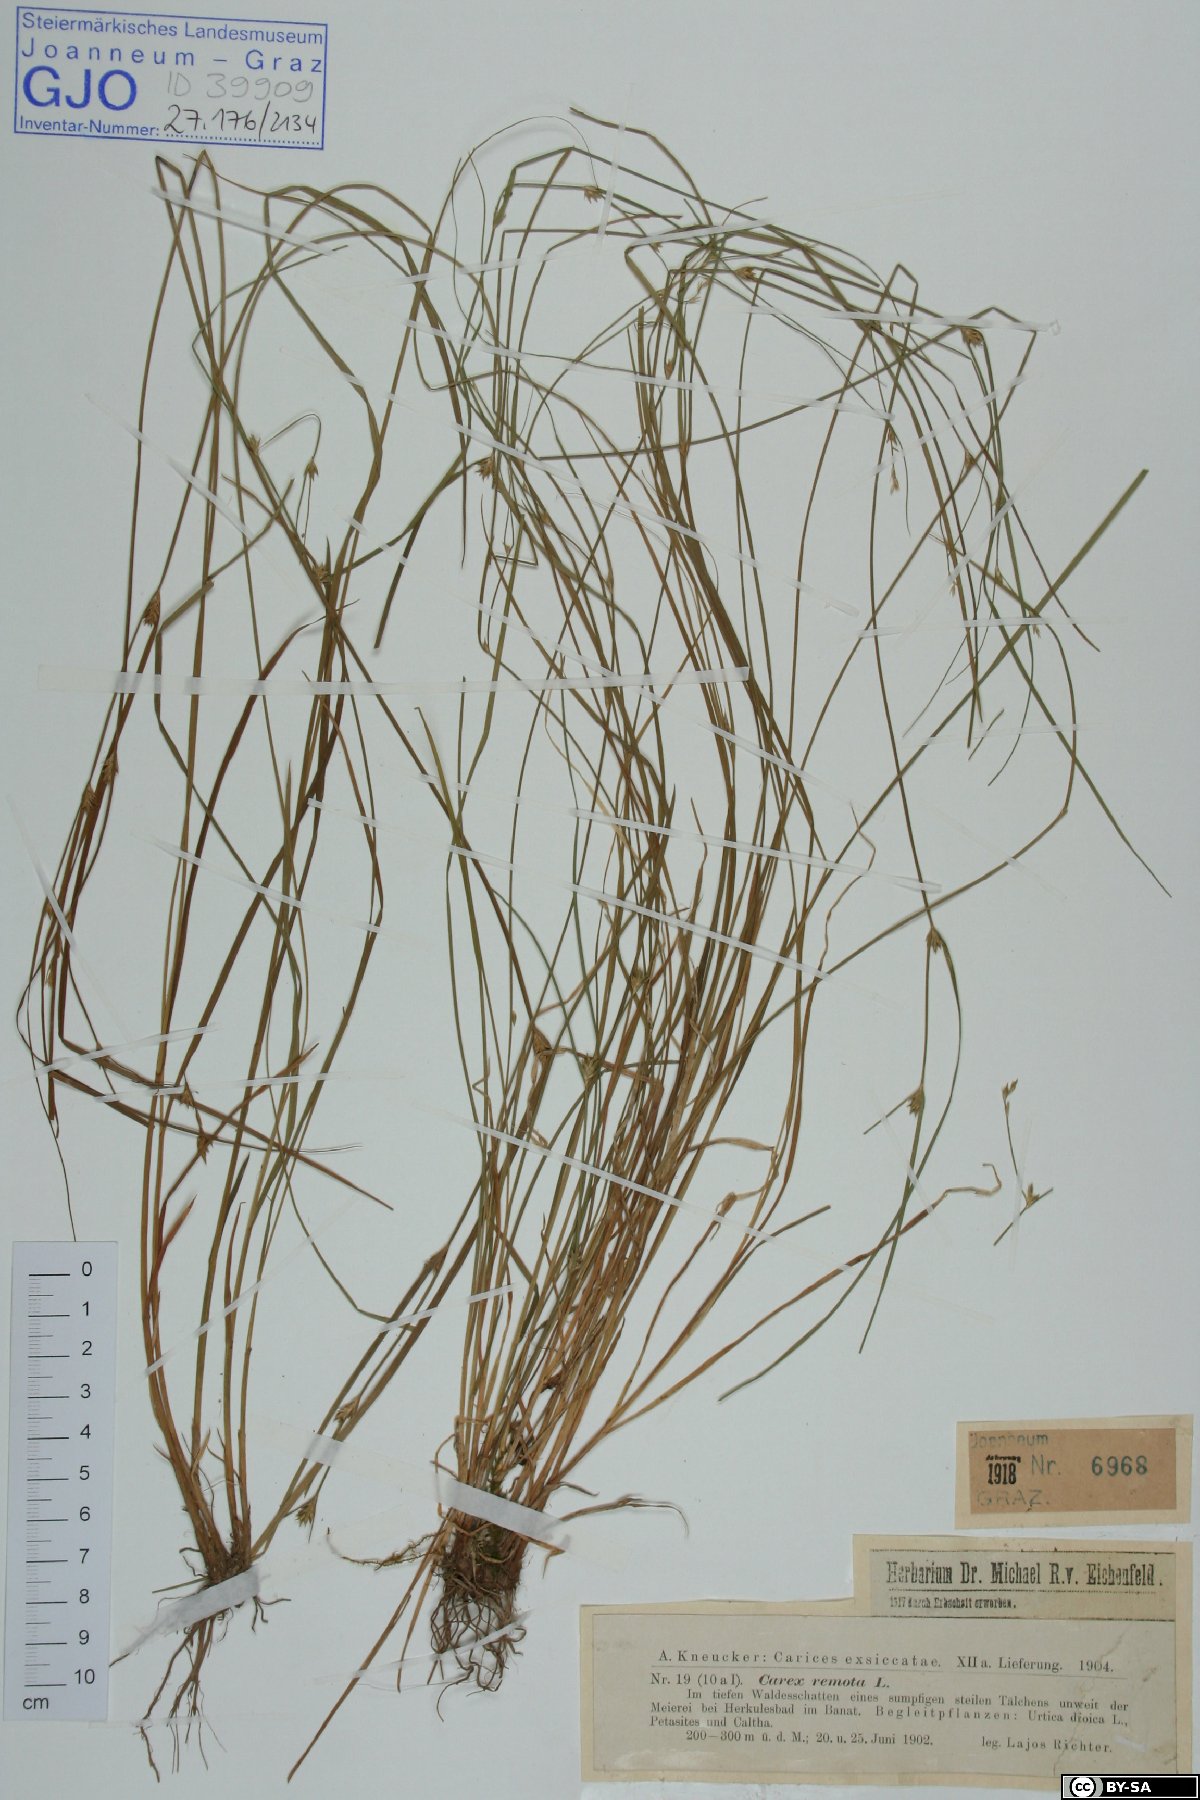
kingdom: Plantae
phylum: Tracheophyta
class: Liliopsida
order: Poales
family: Cyperaceae
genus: Carex
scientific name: Carex remota
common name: Remote sedge
